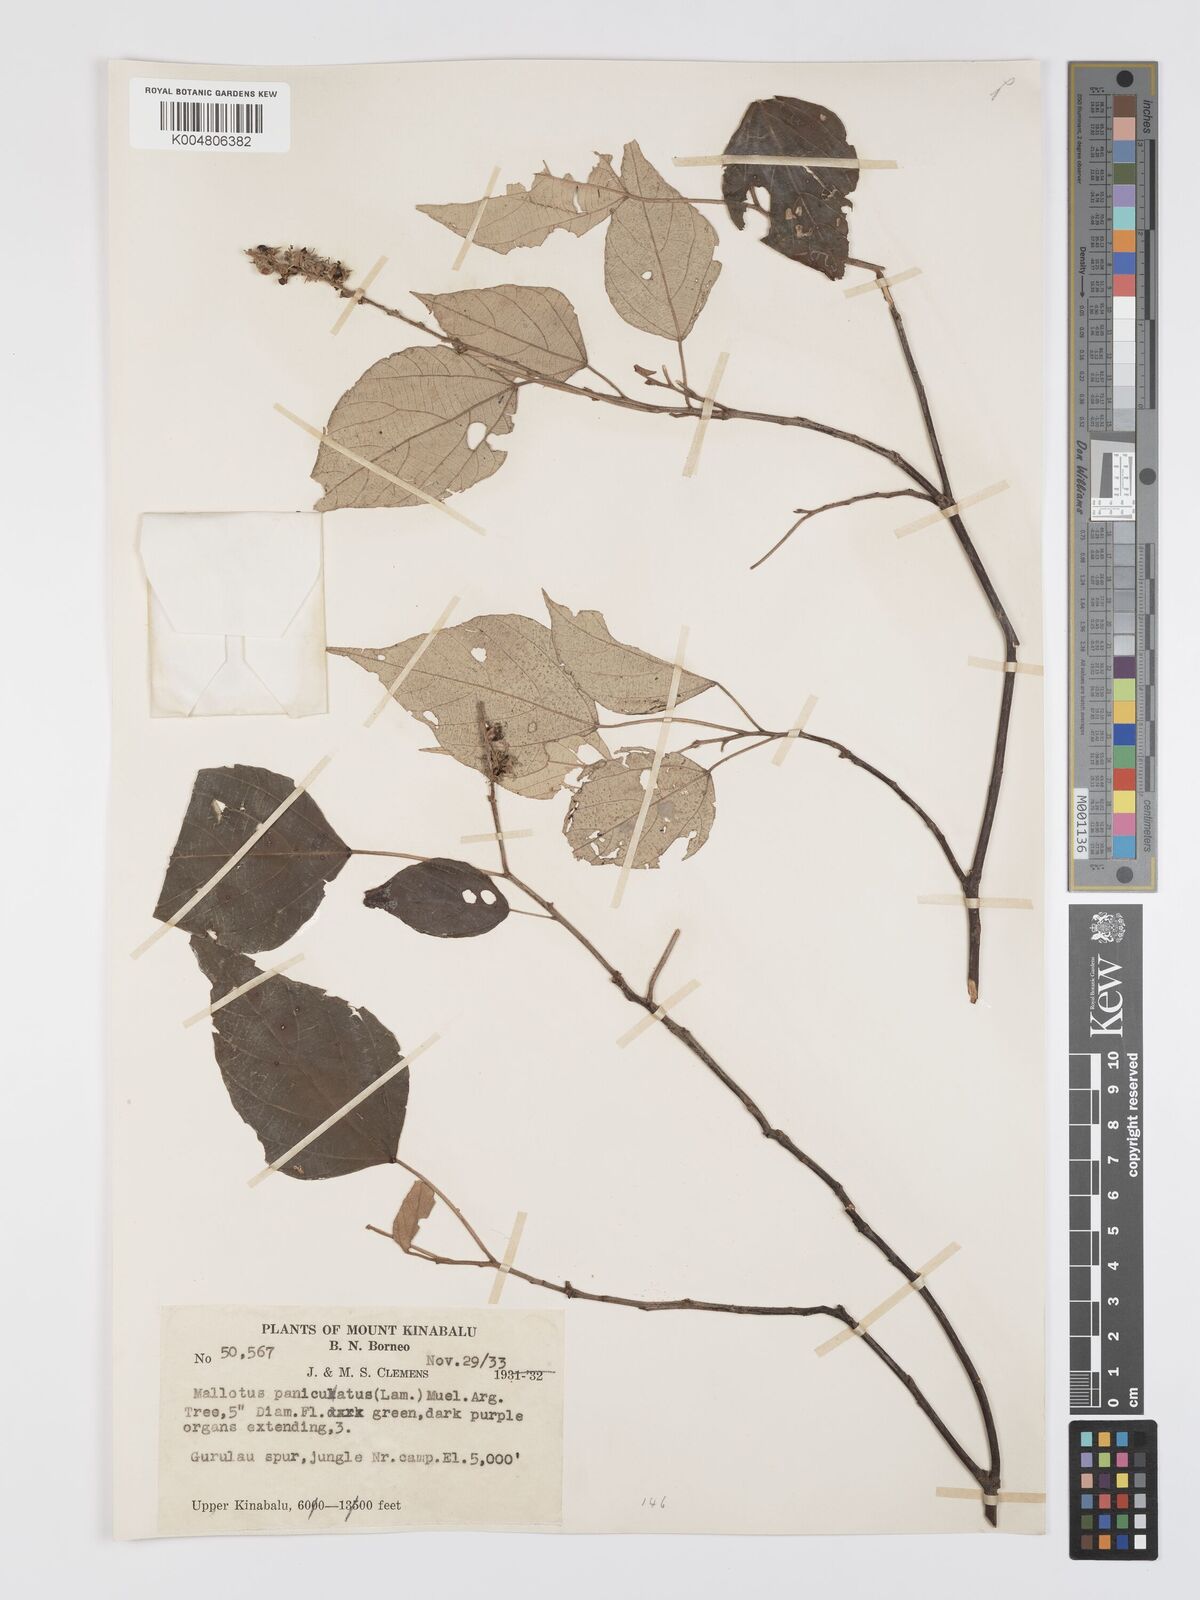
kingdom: Plantae
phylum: Tracheophyta
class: Magnoliopsida
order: Malpighiales
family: Euphorbiaceae
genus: Mallotus
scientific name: Mallotus paniculatus
